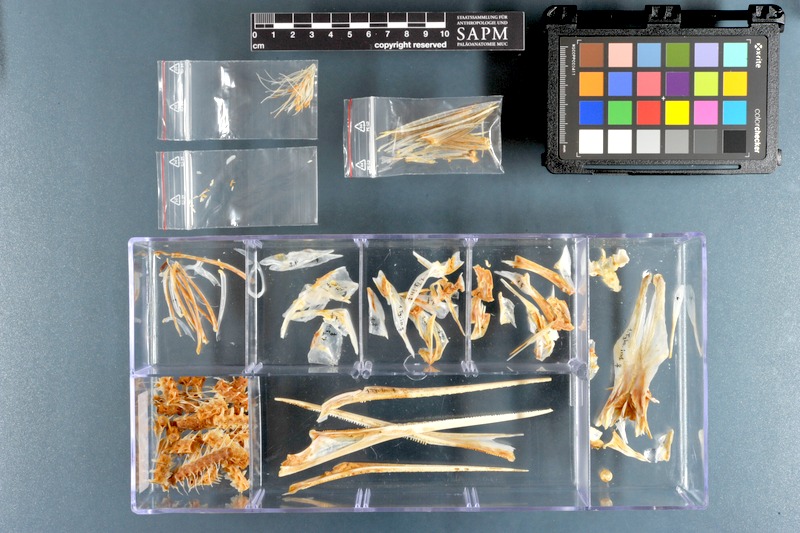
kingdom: Animalia
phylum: Chordata
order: Beloniformes
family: Belonidae
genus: Tylosurus
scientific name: Tylosurus crocodilus
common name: Houndfish
